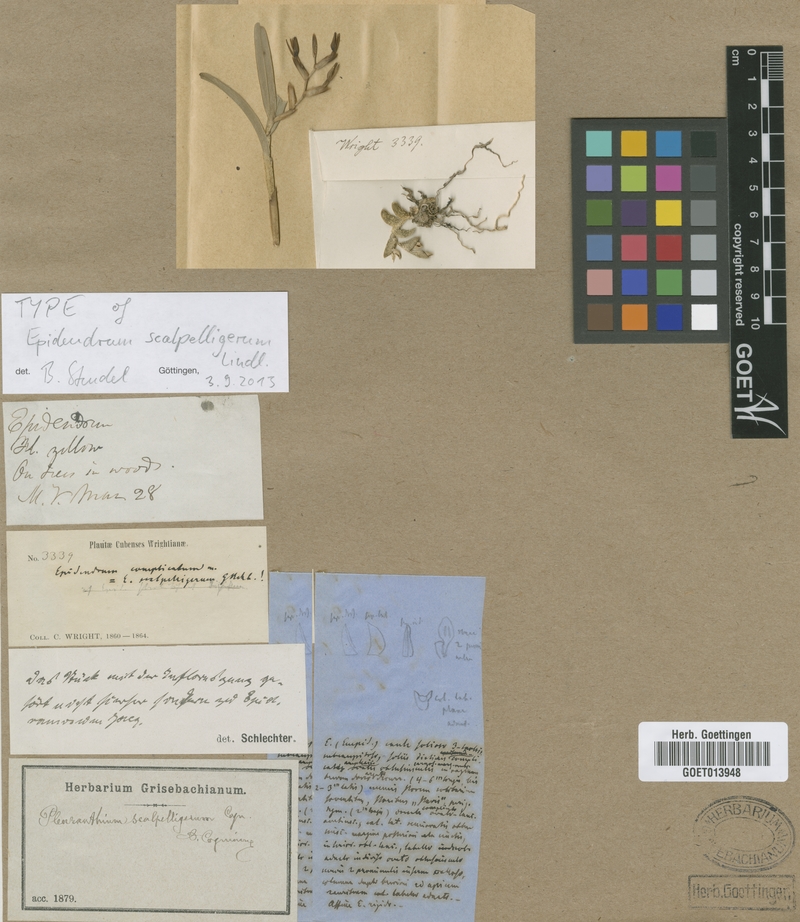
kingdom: Plantae
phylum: Tracheophyta
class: Liliopsida
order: Asparagales
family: Orchidaceae
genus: Epidendrum
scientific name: Epidendrum scalpelligerum
